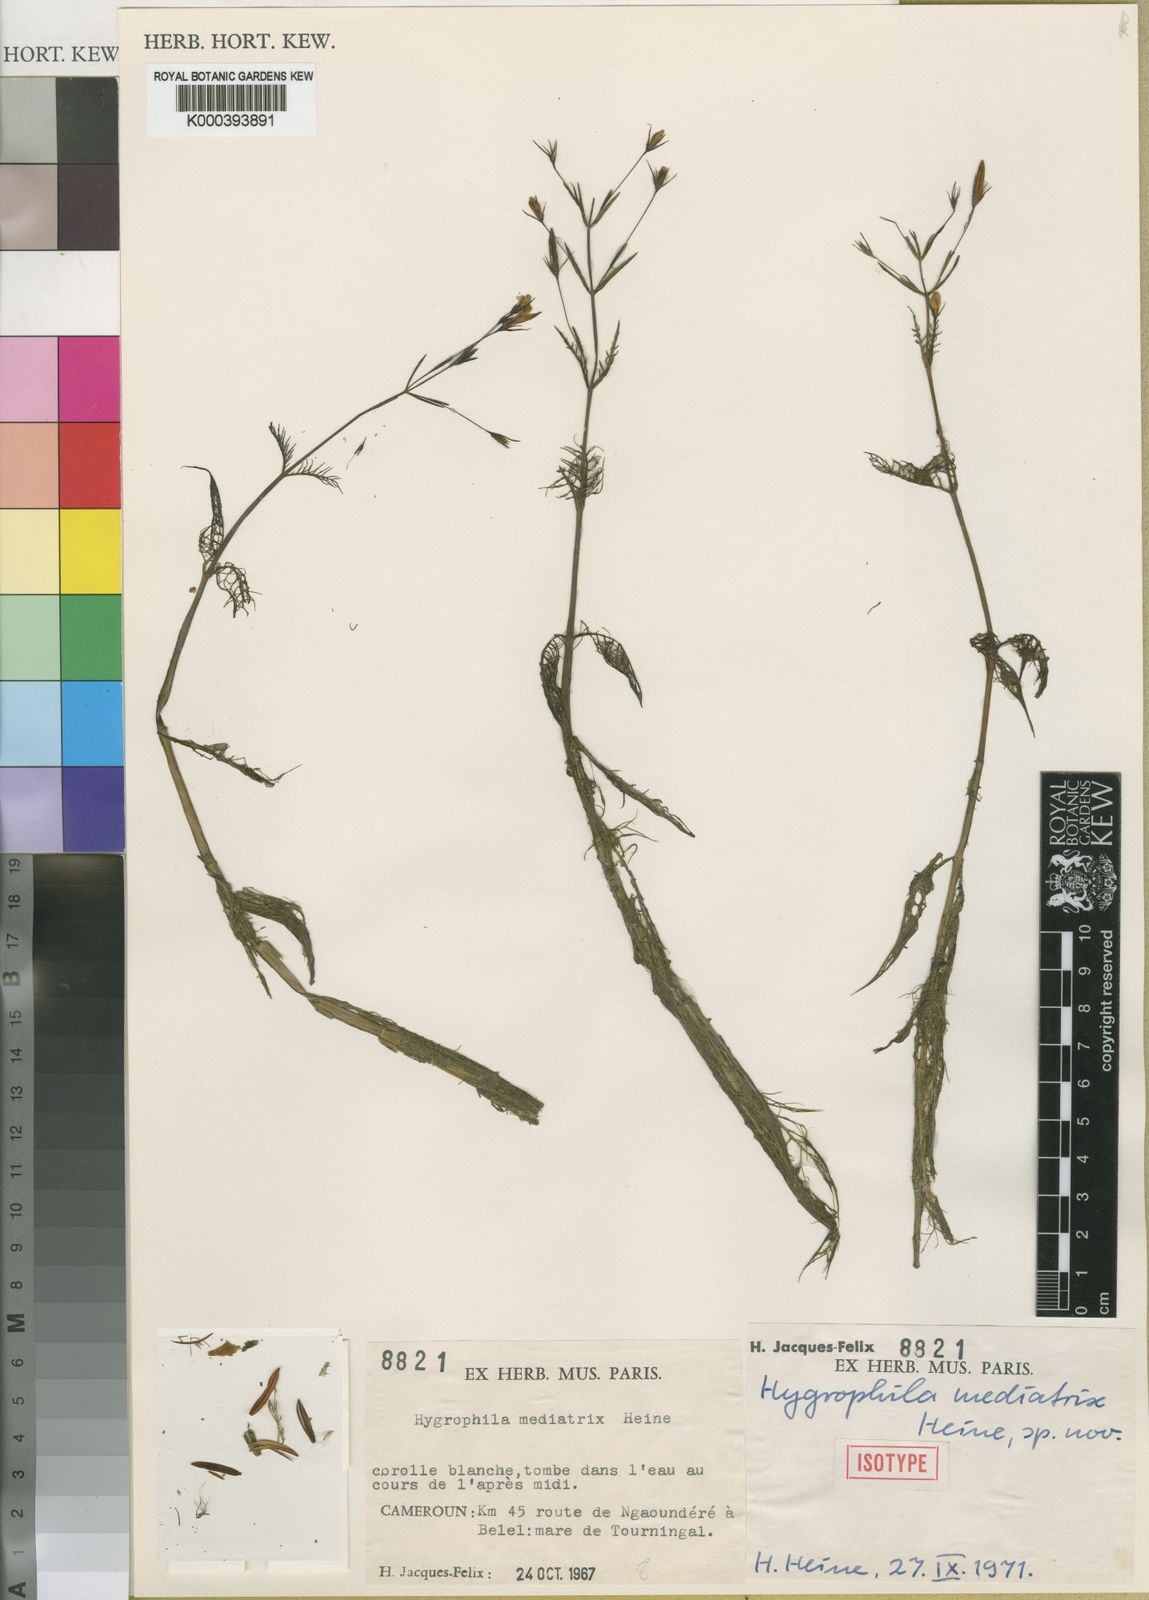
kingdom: Plantae
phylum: Tracheophyta
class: Magnoliopsida
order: Lamiales
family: Acanthaceae
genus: Hygrophila
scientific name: Hygrophila mediatrix
